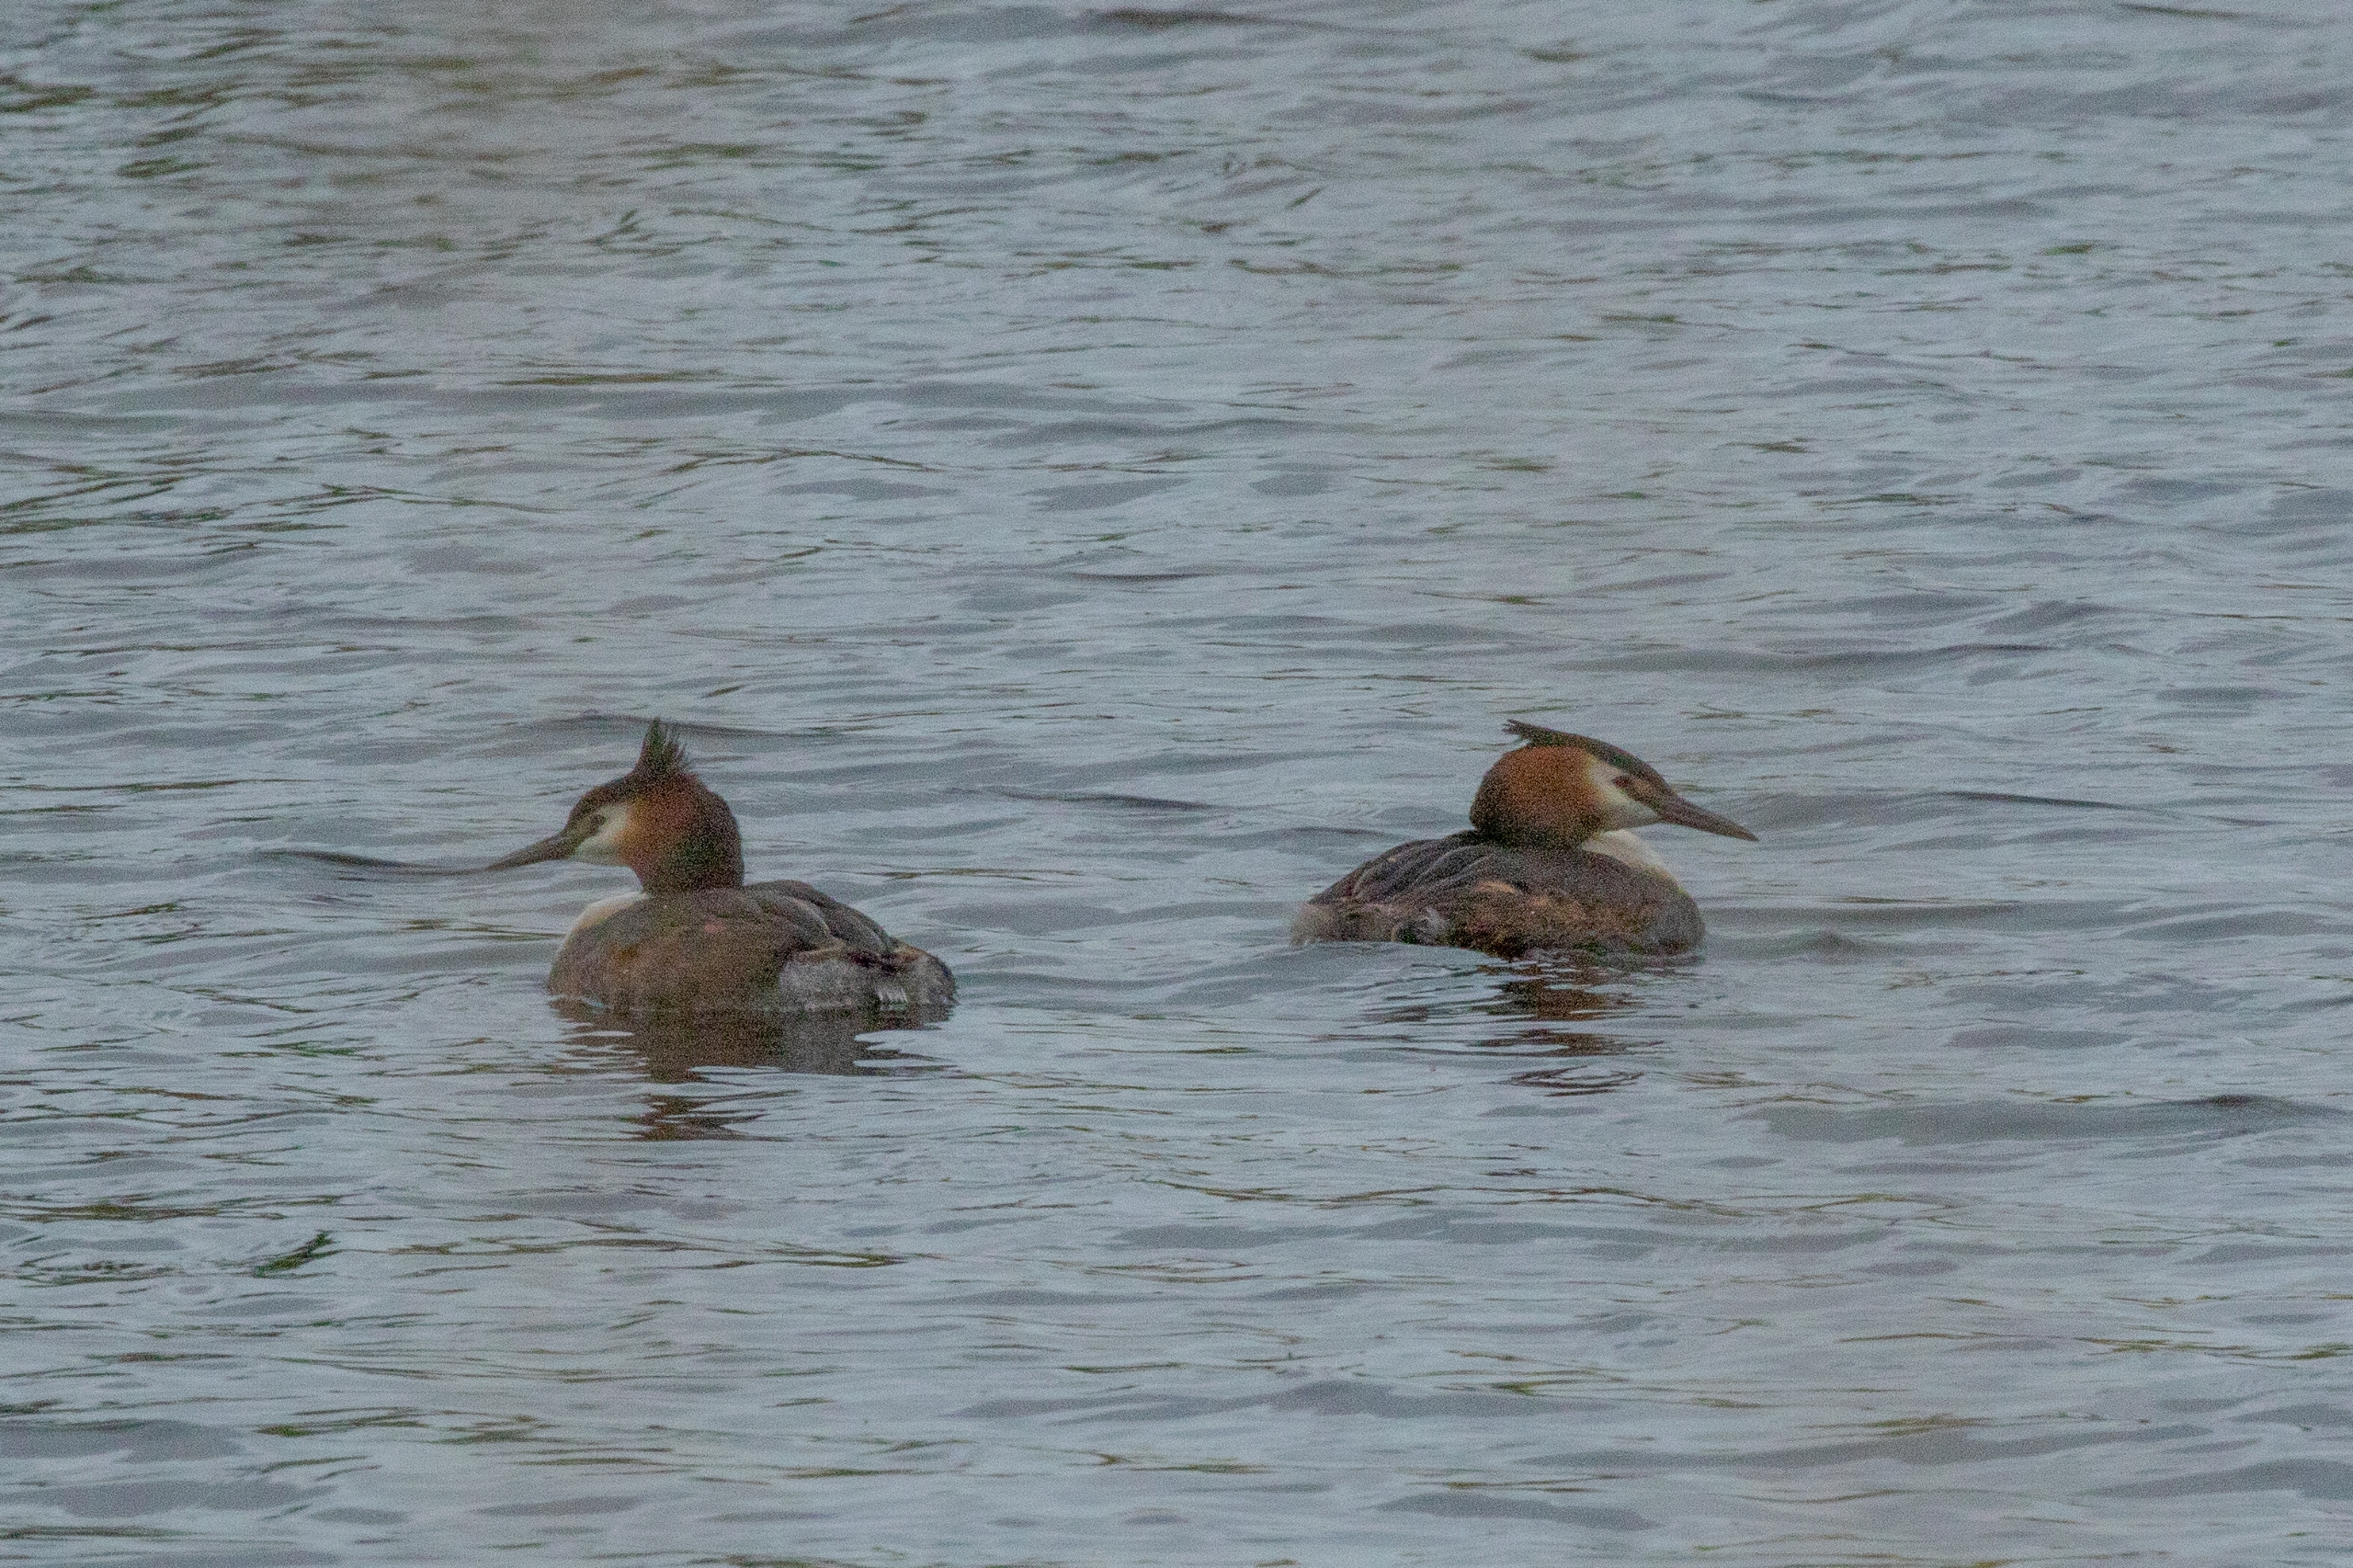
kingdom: Animalia
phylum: Chordata
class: Aves
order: Podicipediformes
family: Podicipedidae
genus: Podiceps
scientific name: Podiceps cristatus
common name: Toppet lappedykker
